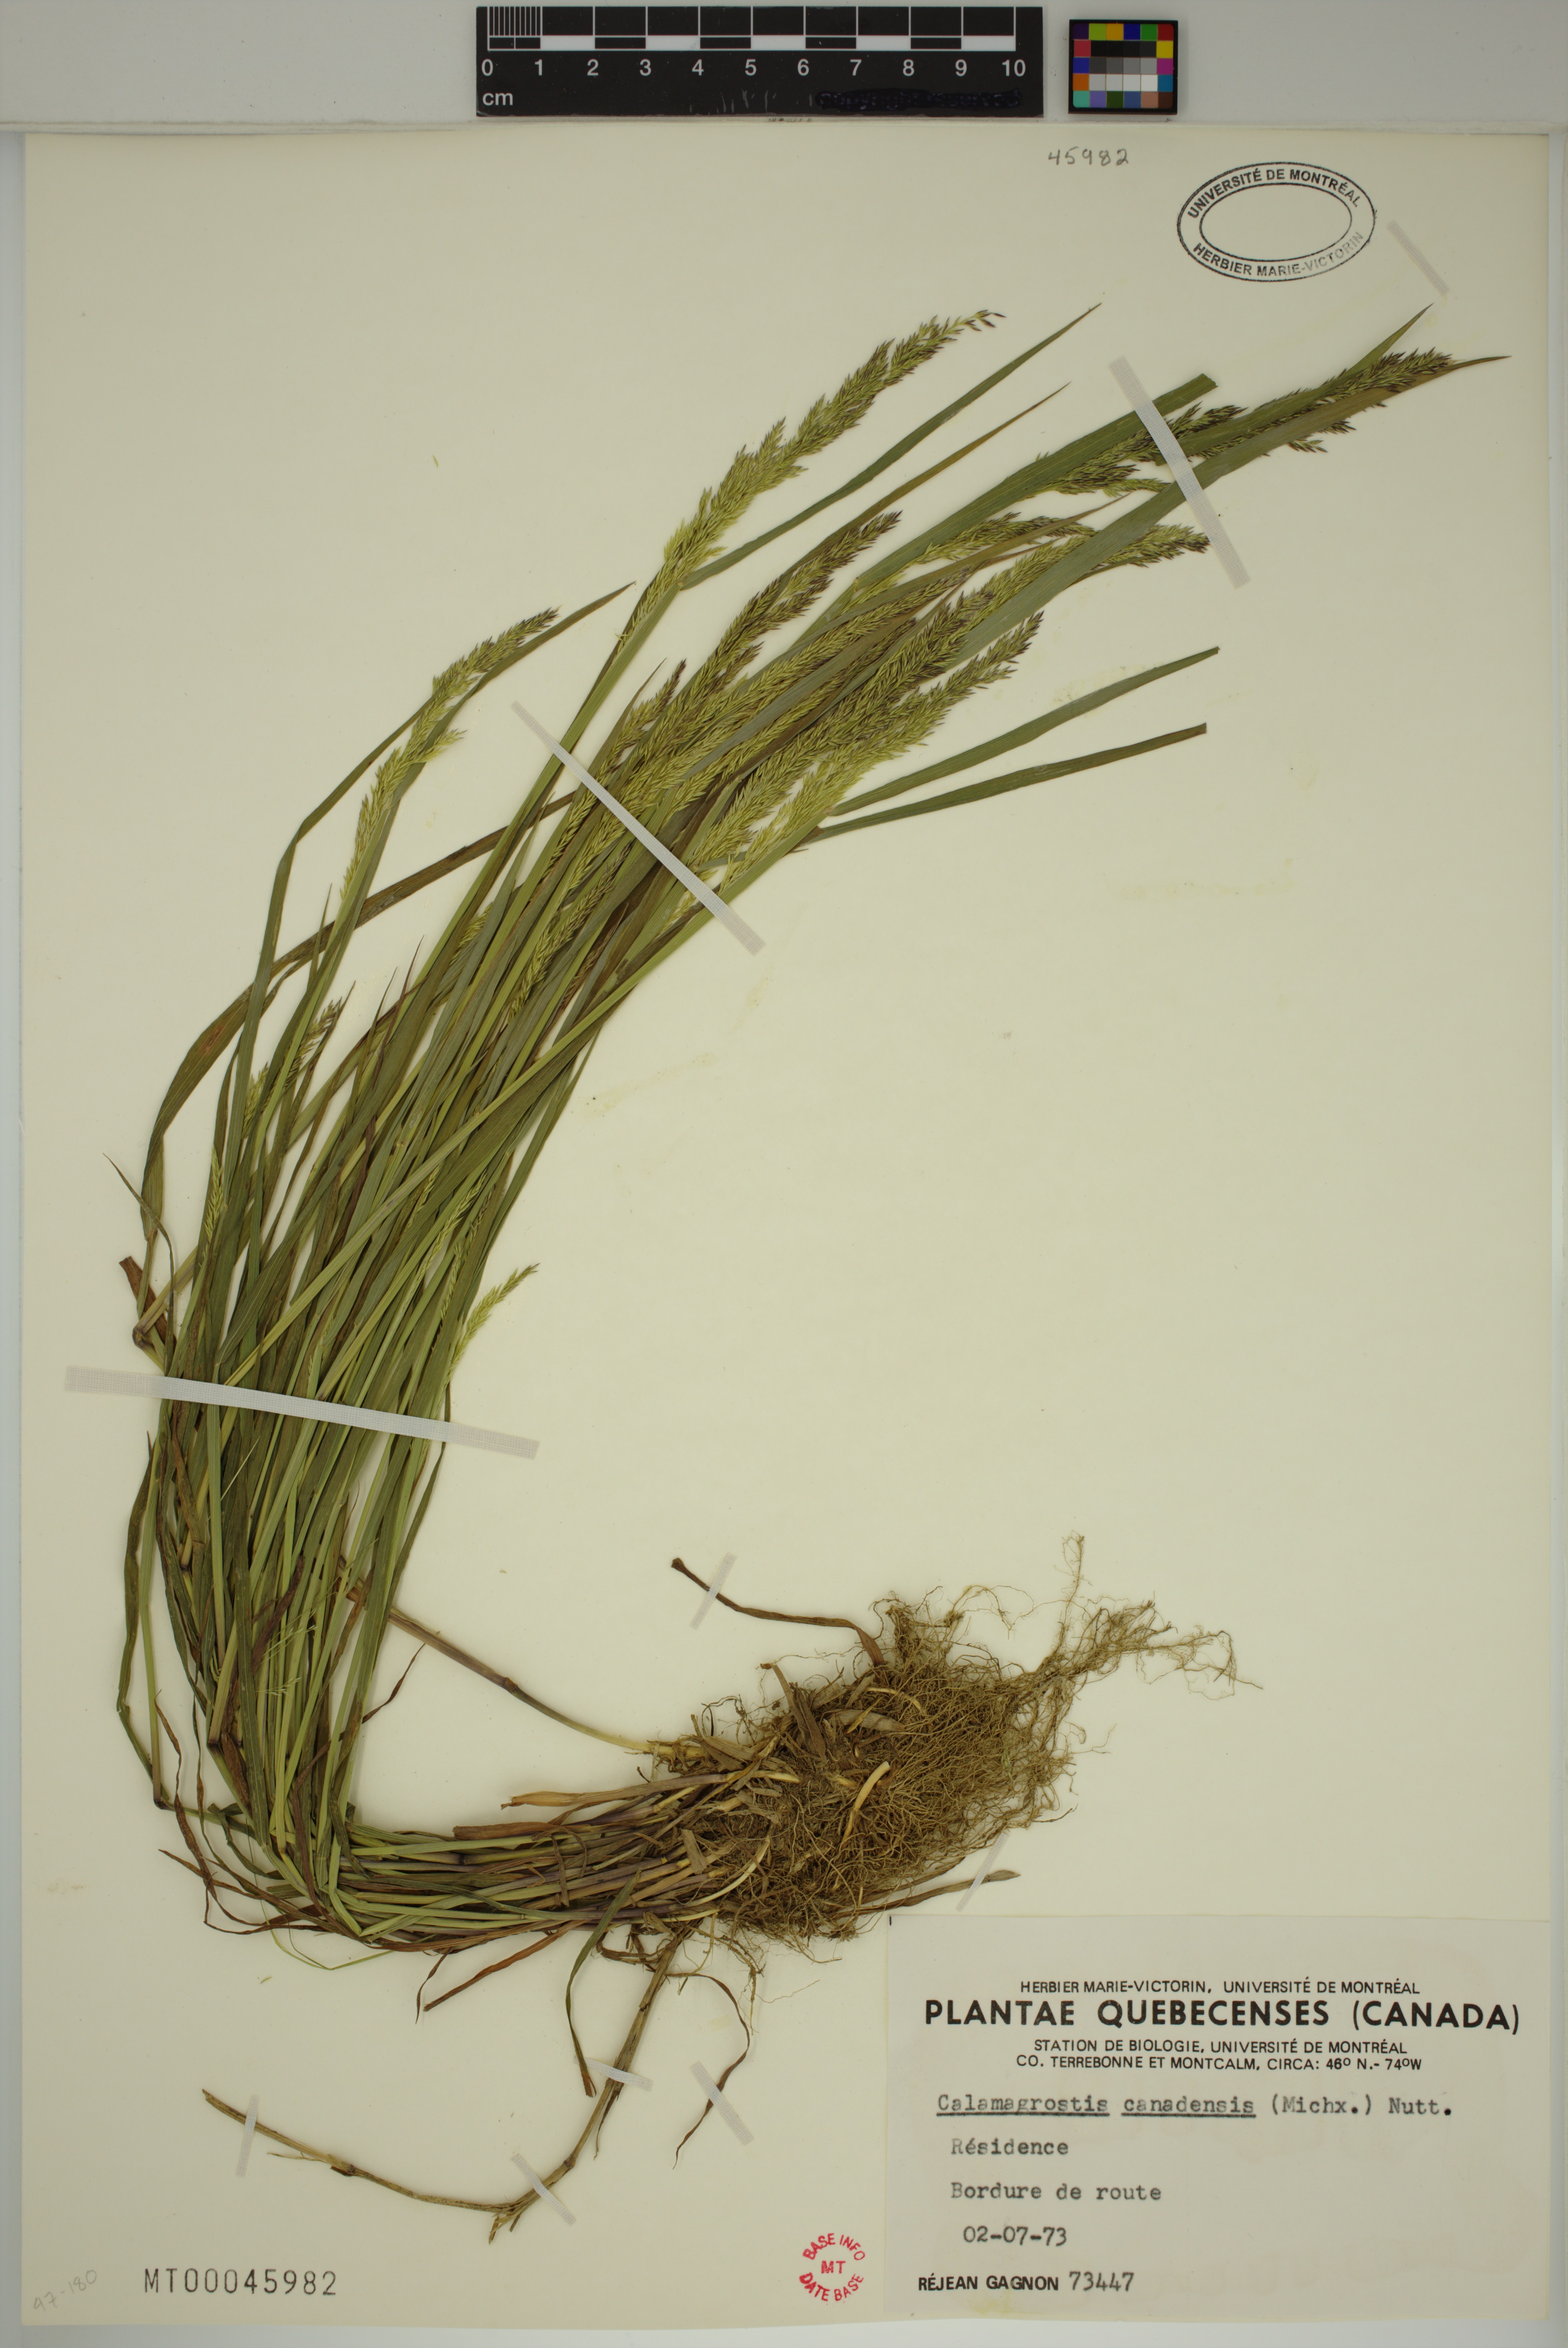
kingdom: Plantae
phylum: Tracheophyta
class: Liliopsida
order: Poales
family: Poaceae
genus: Calamagrostis
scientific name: Calamagrostis canadensis
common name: Canada bluejoint
